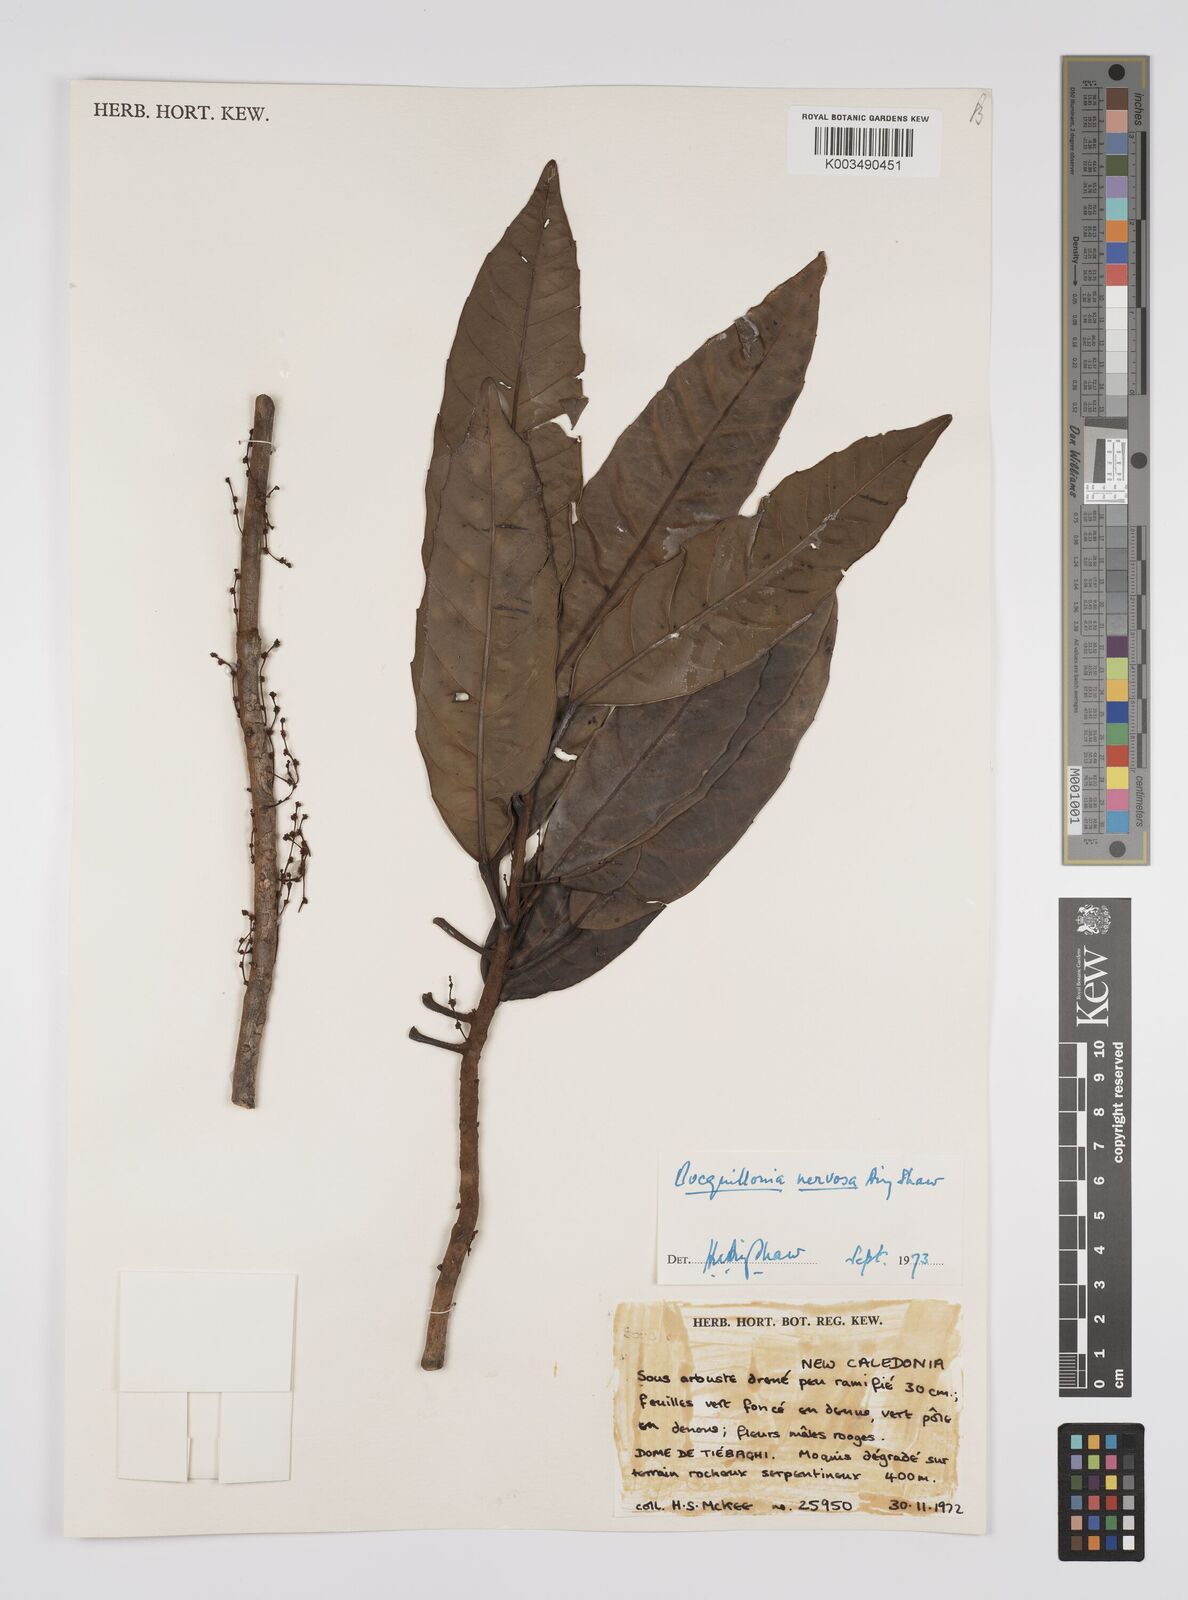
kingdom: Plantae
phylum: Tracheophyta
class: Magnoliopsida
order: Malpighiales
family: Euphorbiaceae
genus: Bocquillonia
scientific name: Bocquillonia nervosa
